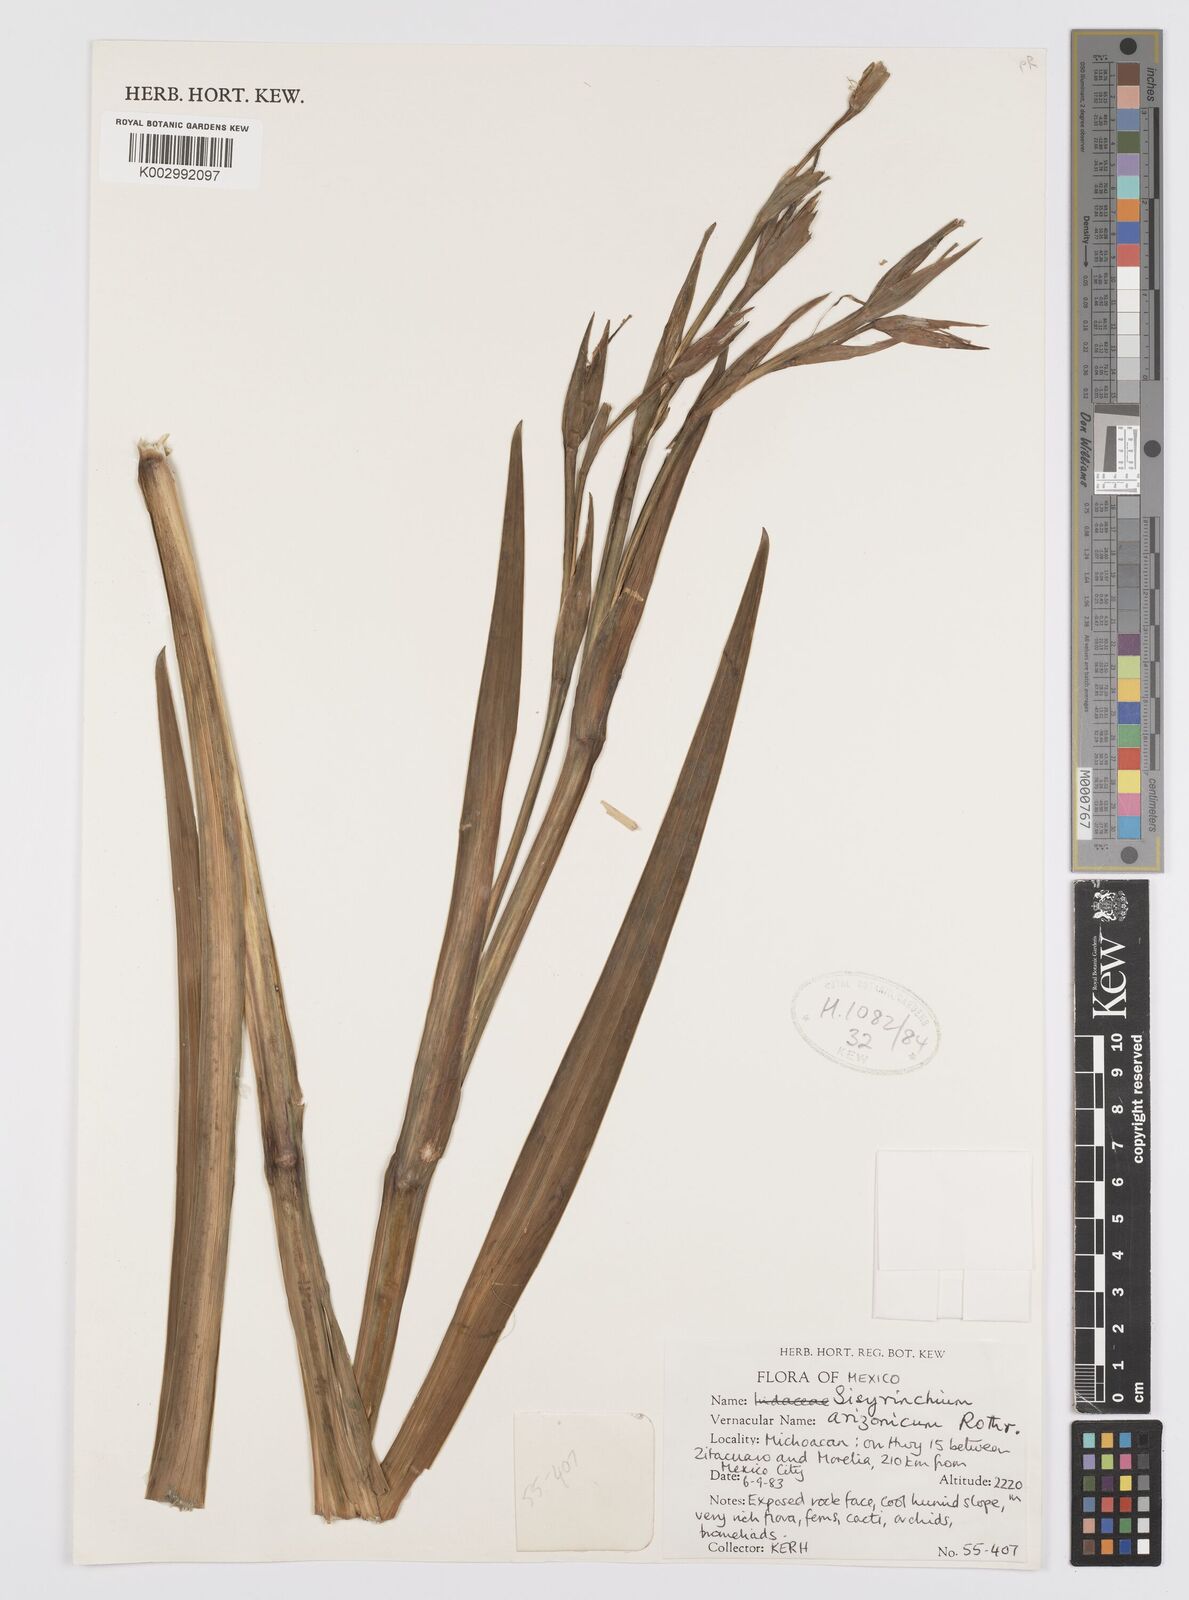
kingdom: Plantae
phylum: Tracheophyta
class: Liliopsida
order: Asparagales
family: Iridaceae
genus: Sisyrinchium
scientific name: Sisyrinchium arizonicum
